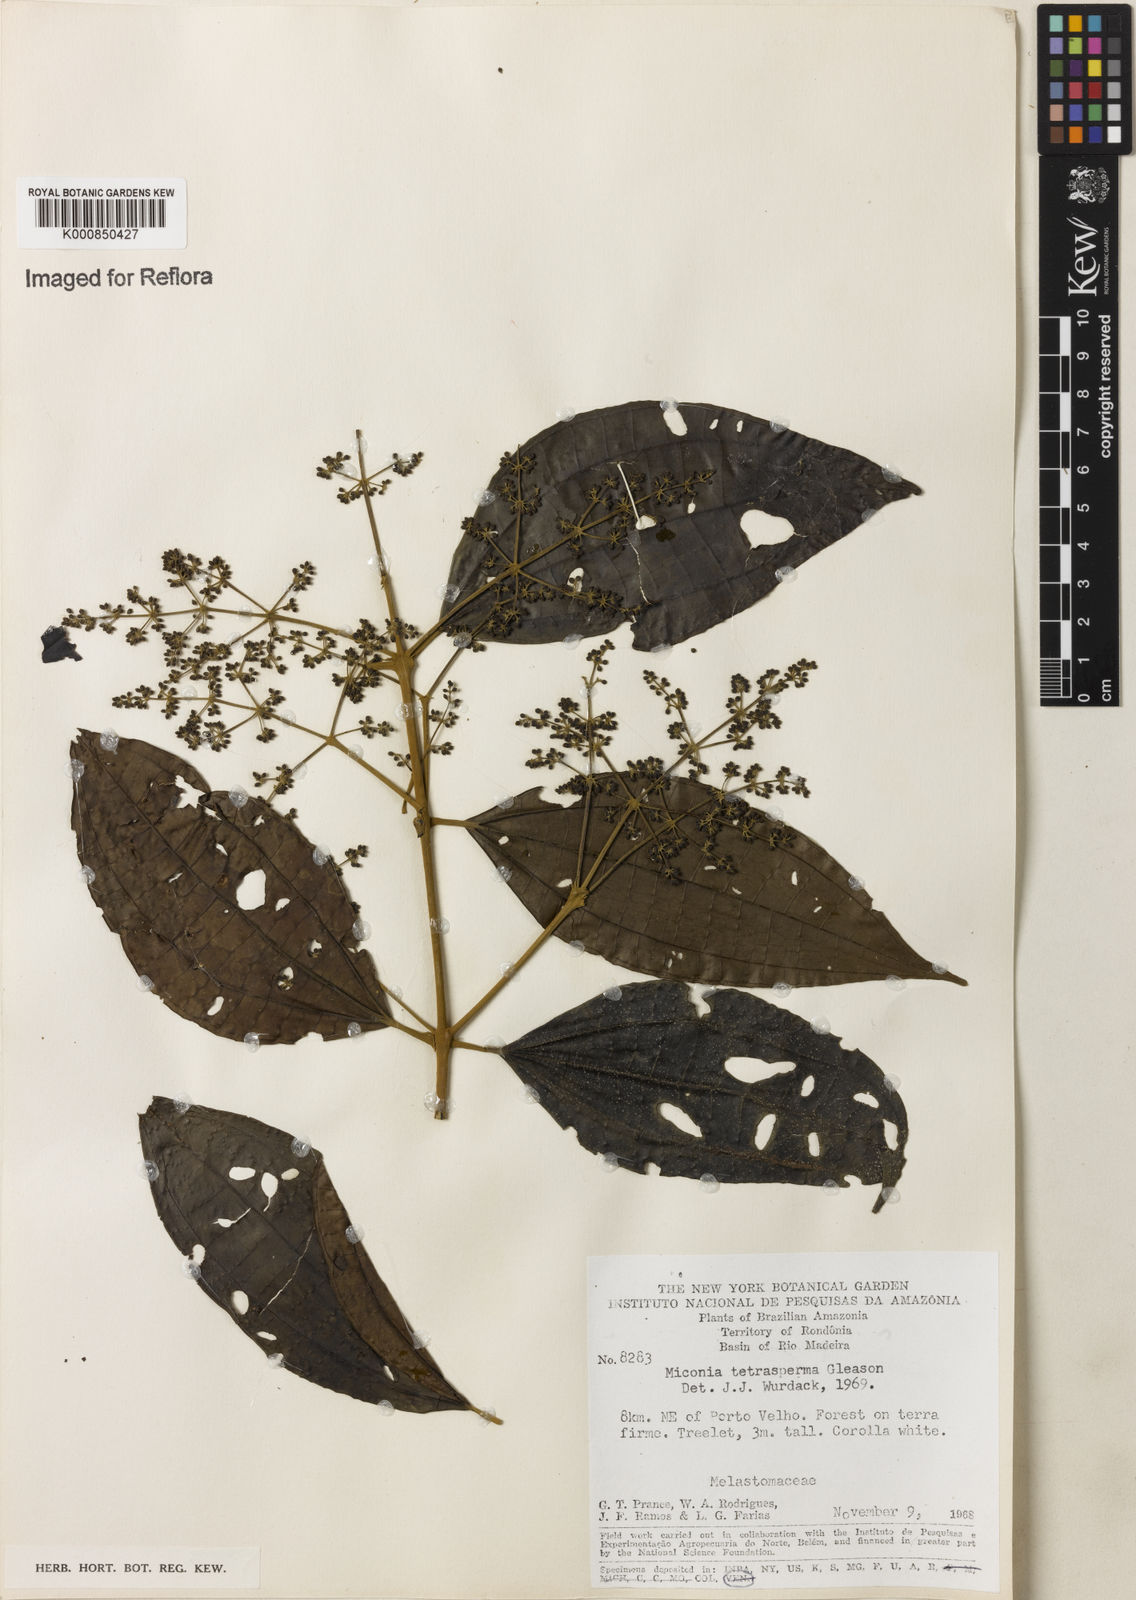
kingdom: Plantae
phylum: Tracheophyta
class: Magnoliopsida
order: Myrtales
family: Melastomataceae
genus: Miconia
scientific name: Miconia tetrasperma
